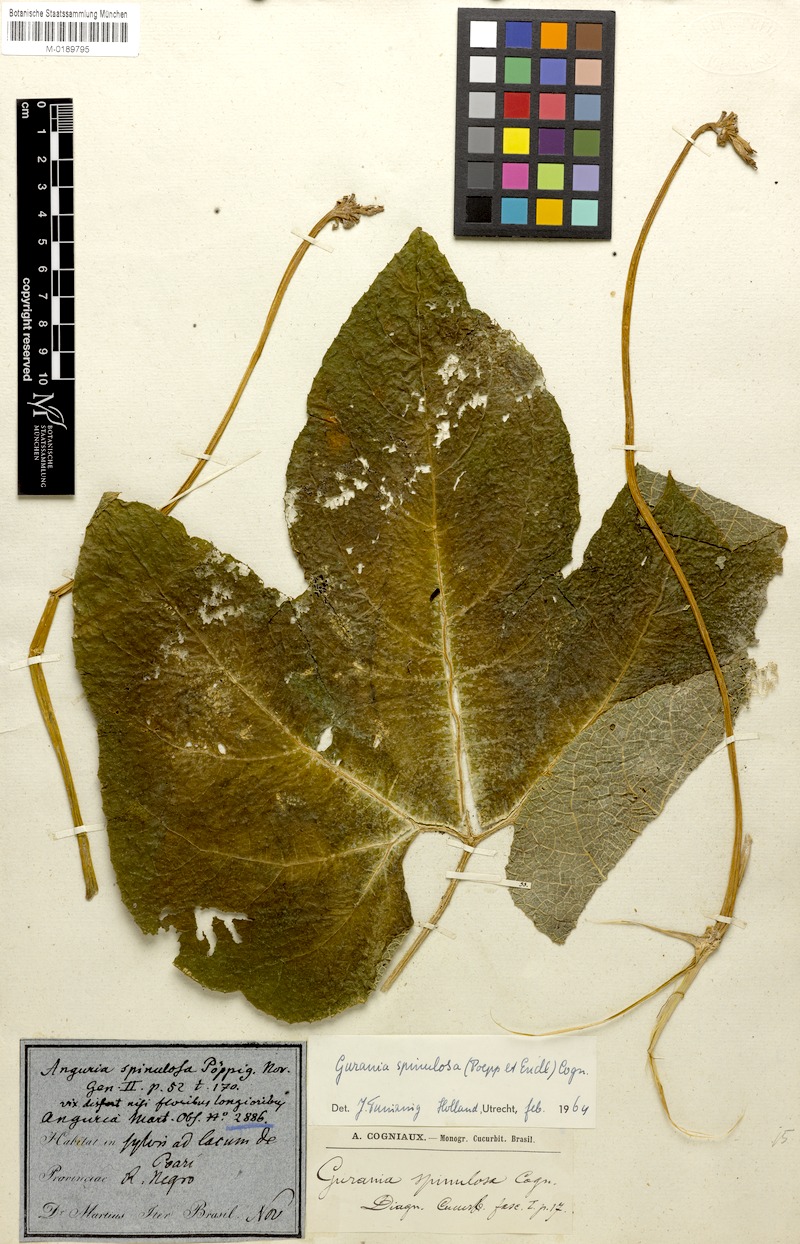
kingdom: Plantae
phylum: Tracheophyta
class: Magnoliopsida
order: Cucurbitales
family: Cucurbitaceae
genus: Gurania
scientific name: Gurania lobata
